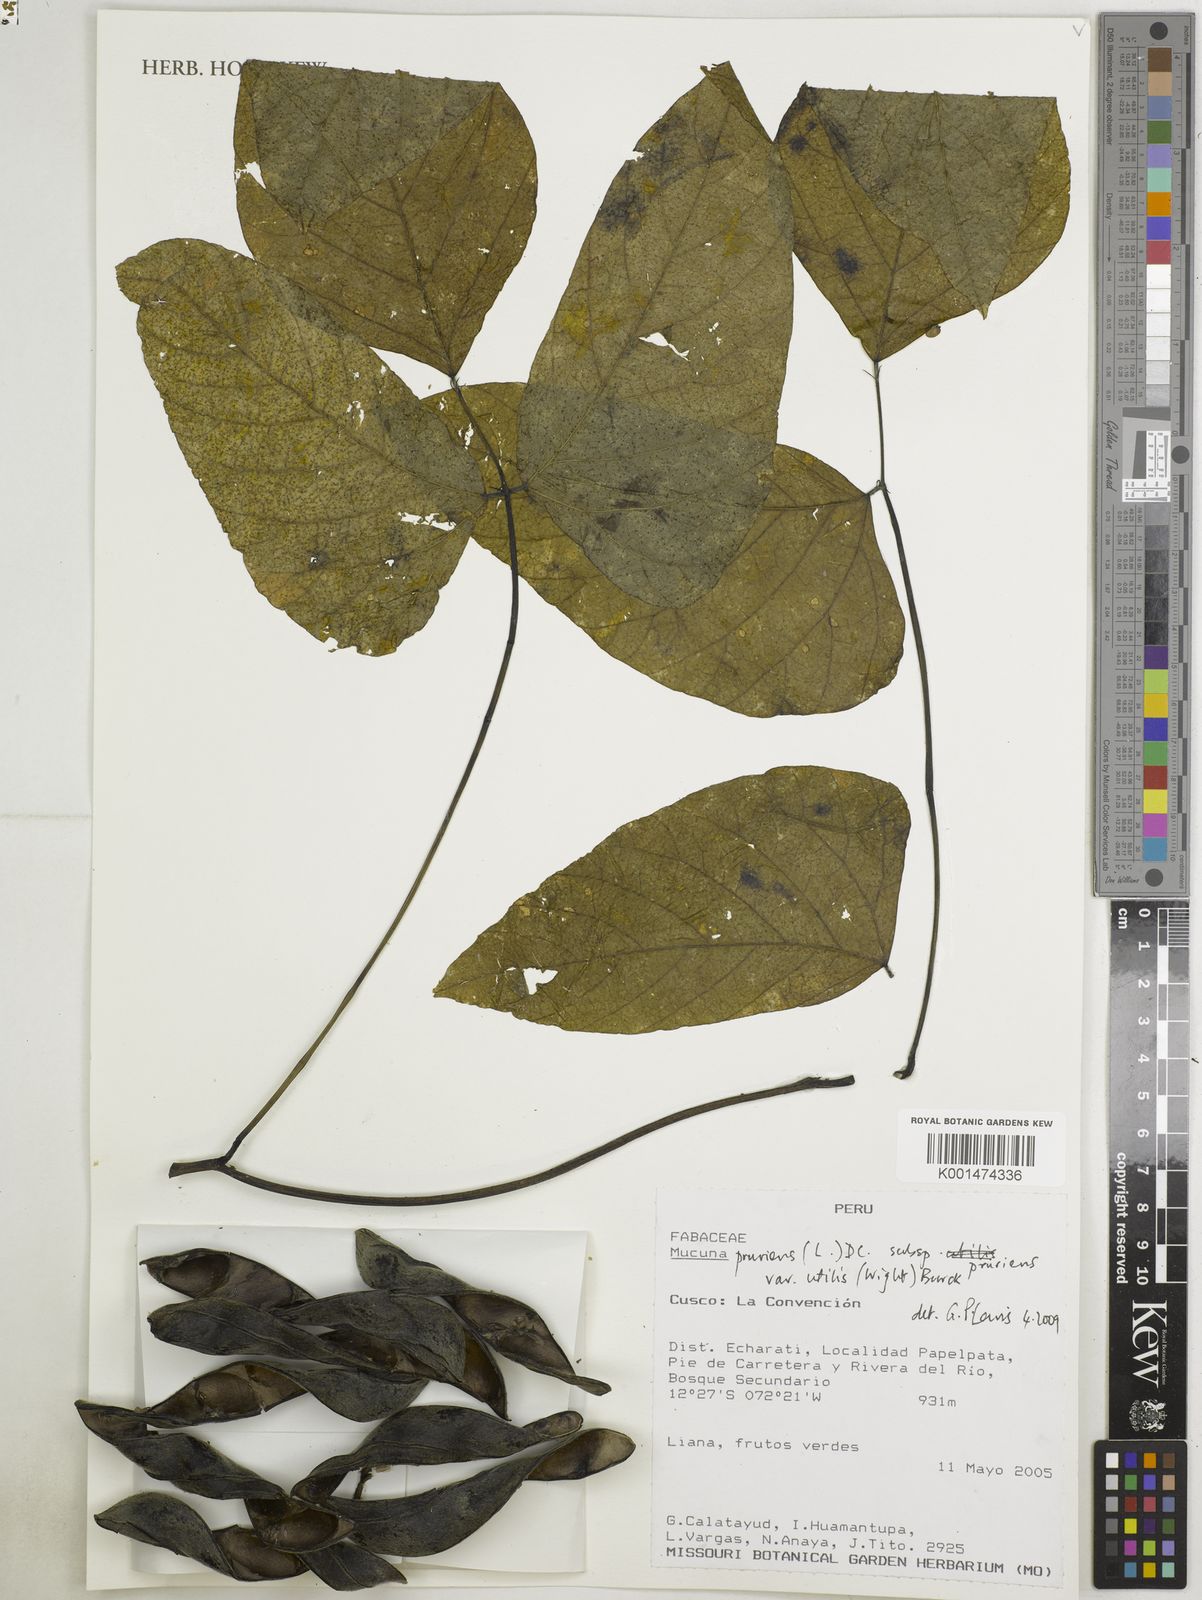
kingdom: Plantae
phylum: Tracheophyta
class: Magnoliopsida
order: Fabales
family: Fabaceae
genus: Mucuna
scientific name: Mucuna pruriens
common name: Cow-itch
